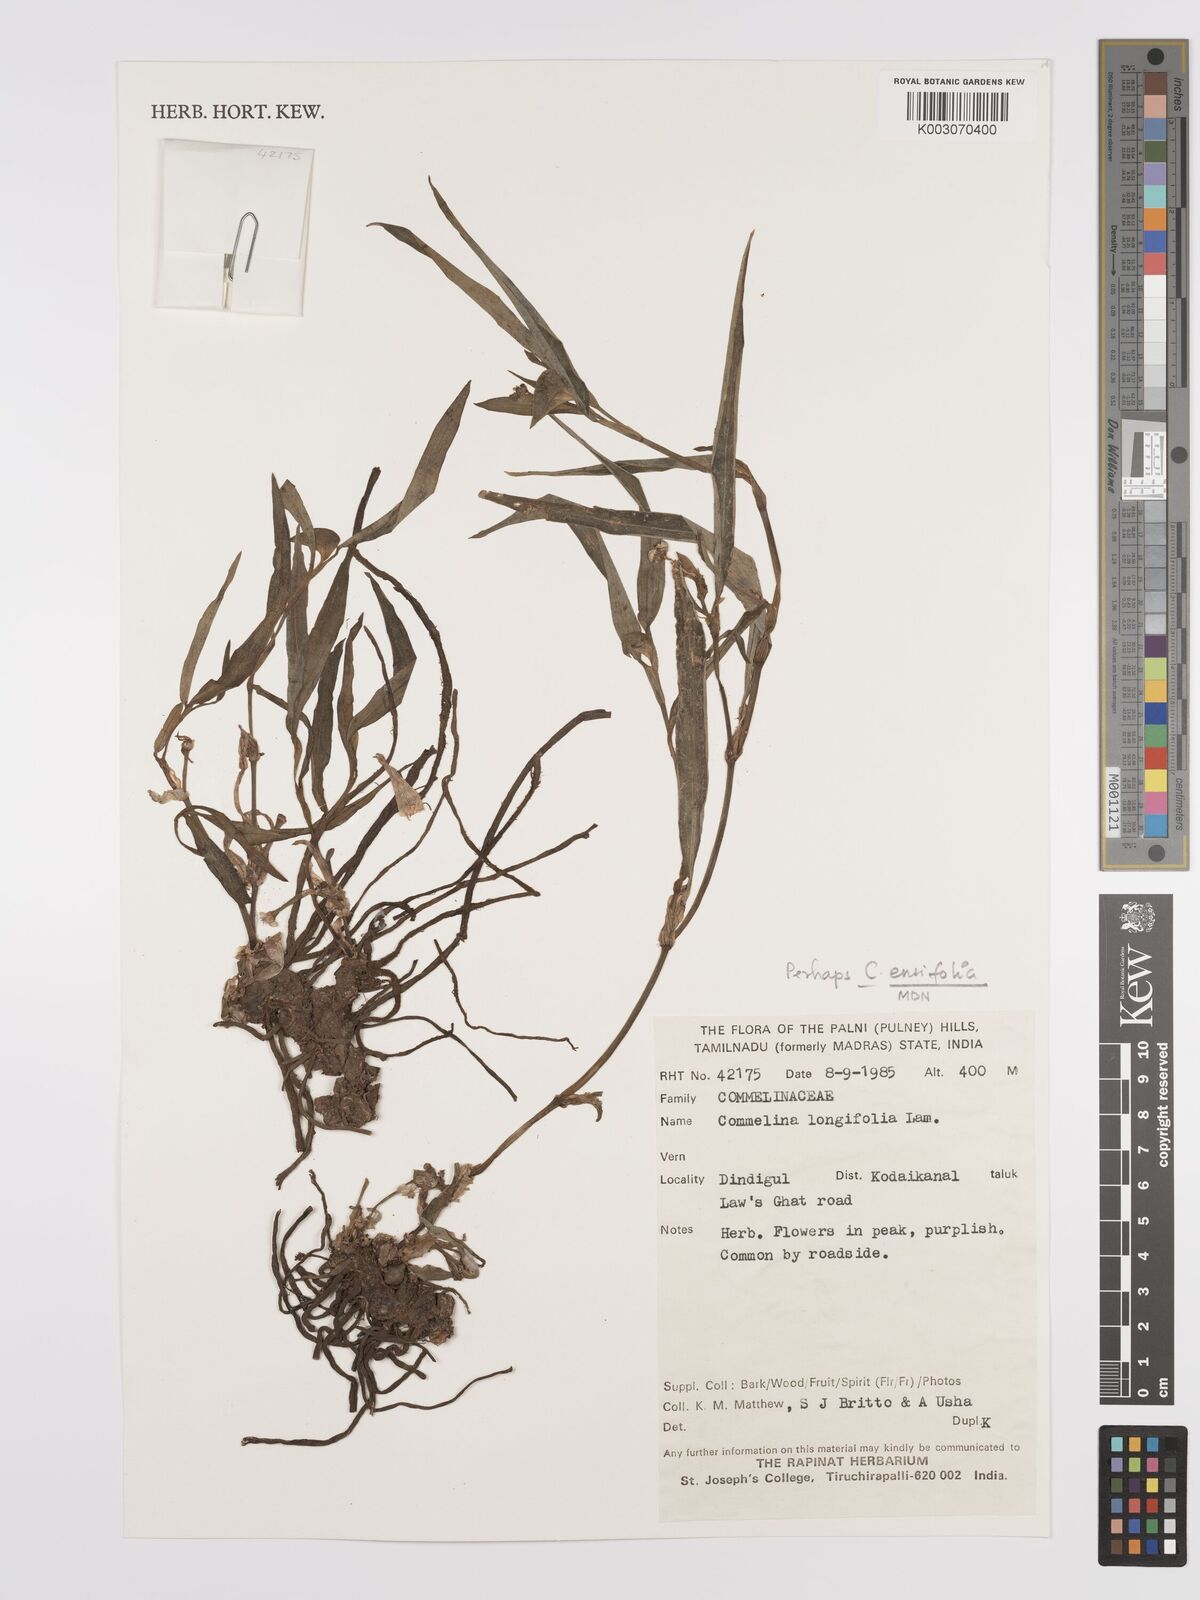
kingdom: Plantae
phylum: Tracheophyta
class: Liliopsida
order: Commelinales
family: Commelinaceae
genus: Commelina
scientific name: Commelina ensifolia
